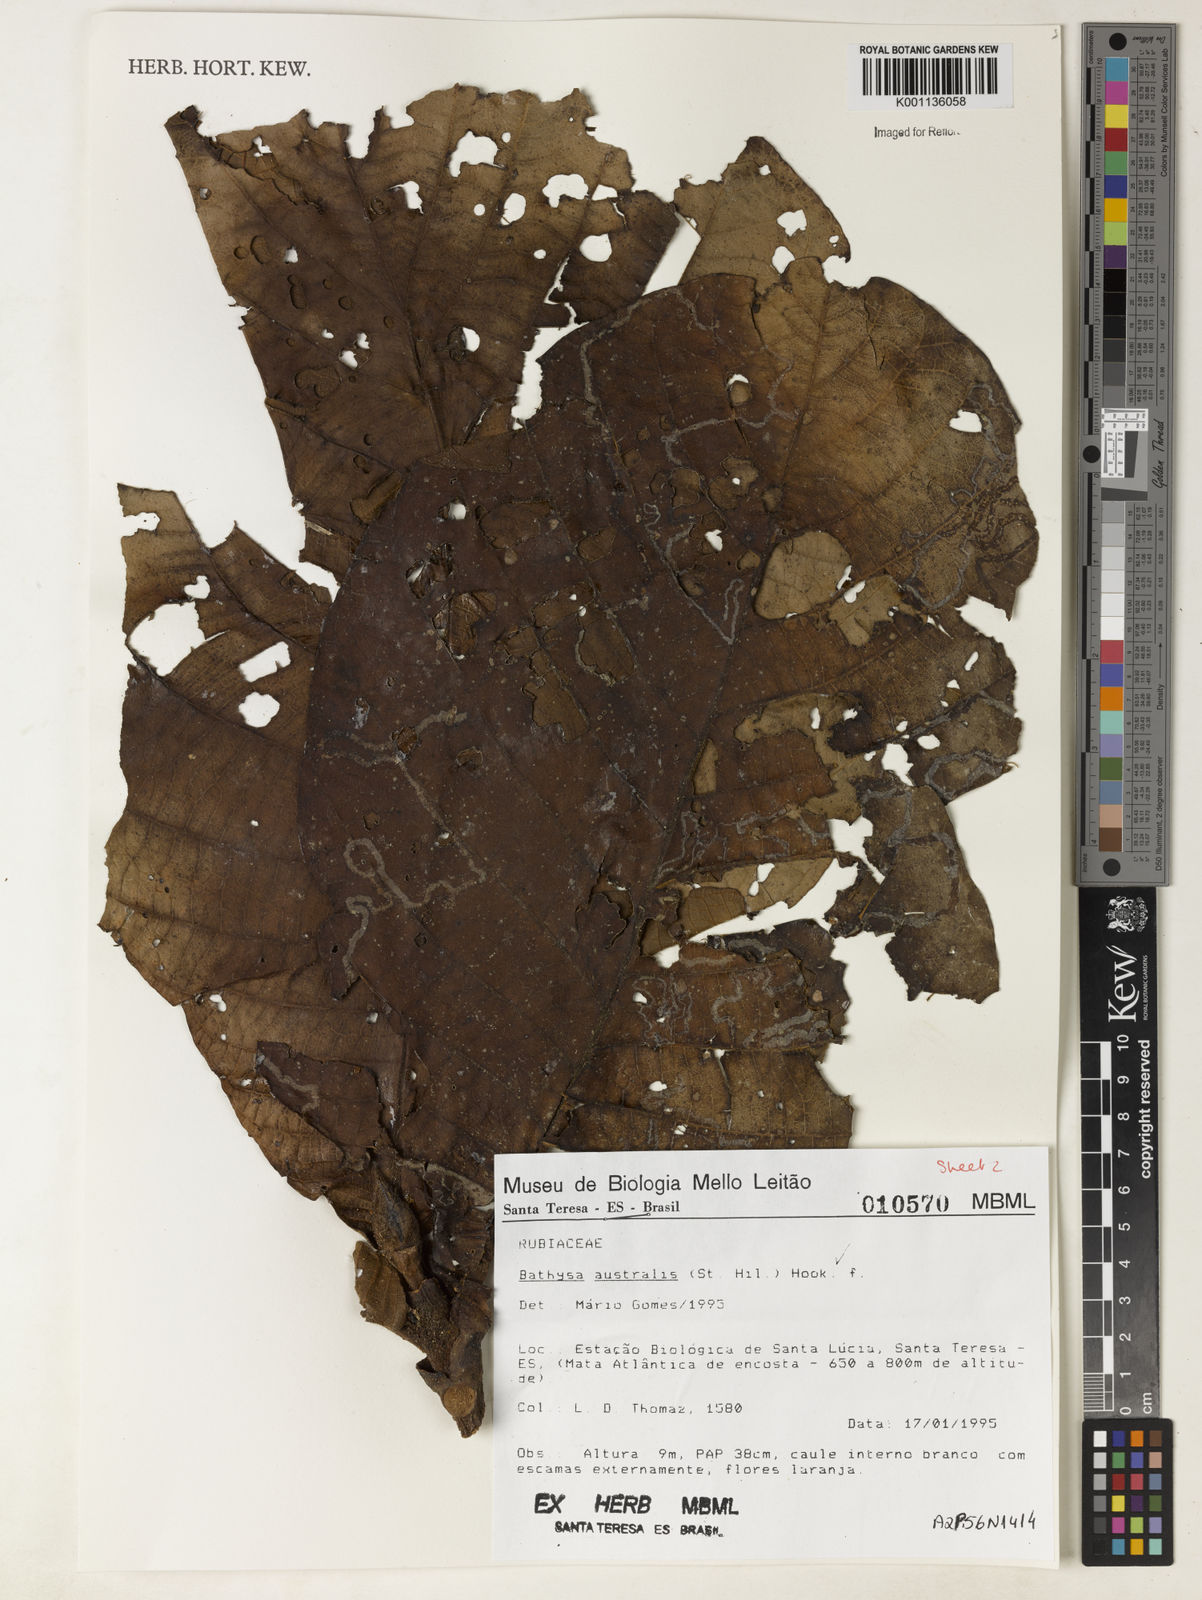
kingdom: Plantae
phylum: Tracheophyta
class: Magnoliopsida
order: Gentianales
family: Rubiaceae
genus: Bathysa
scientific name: Bathysa australis
